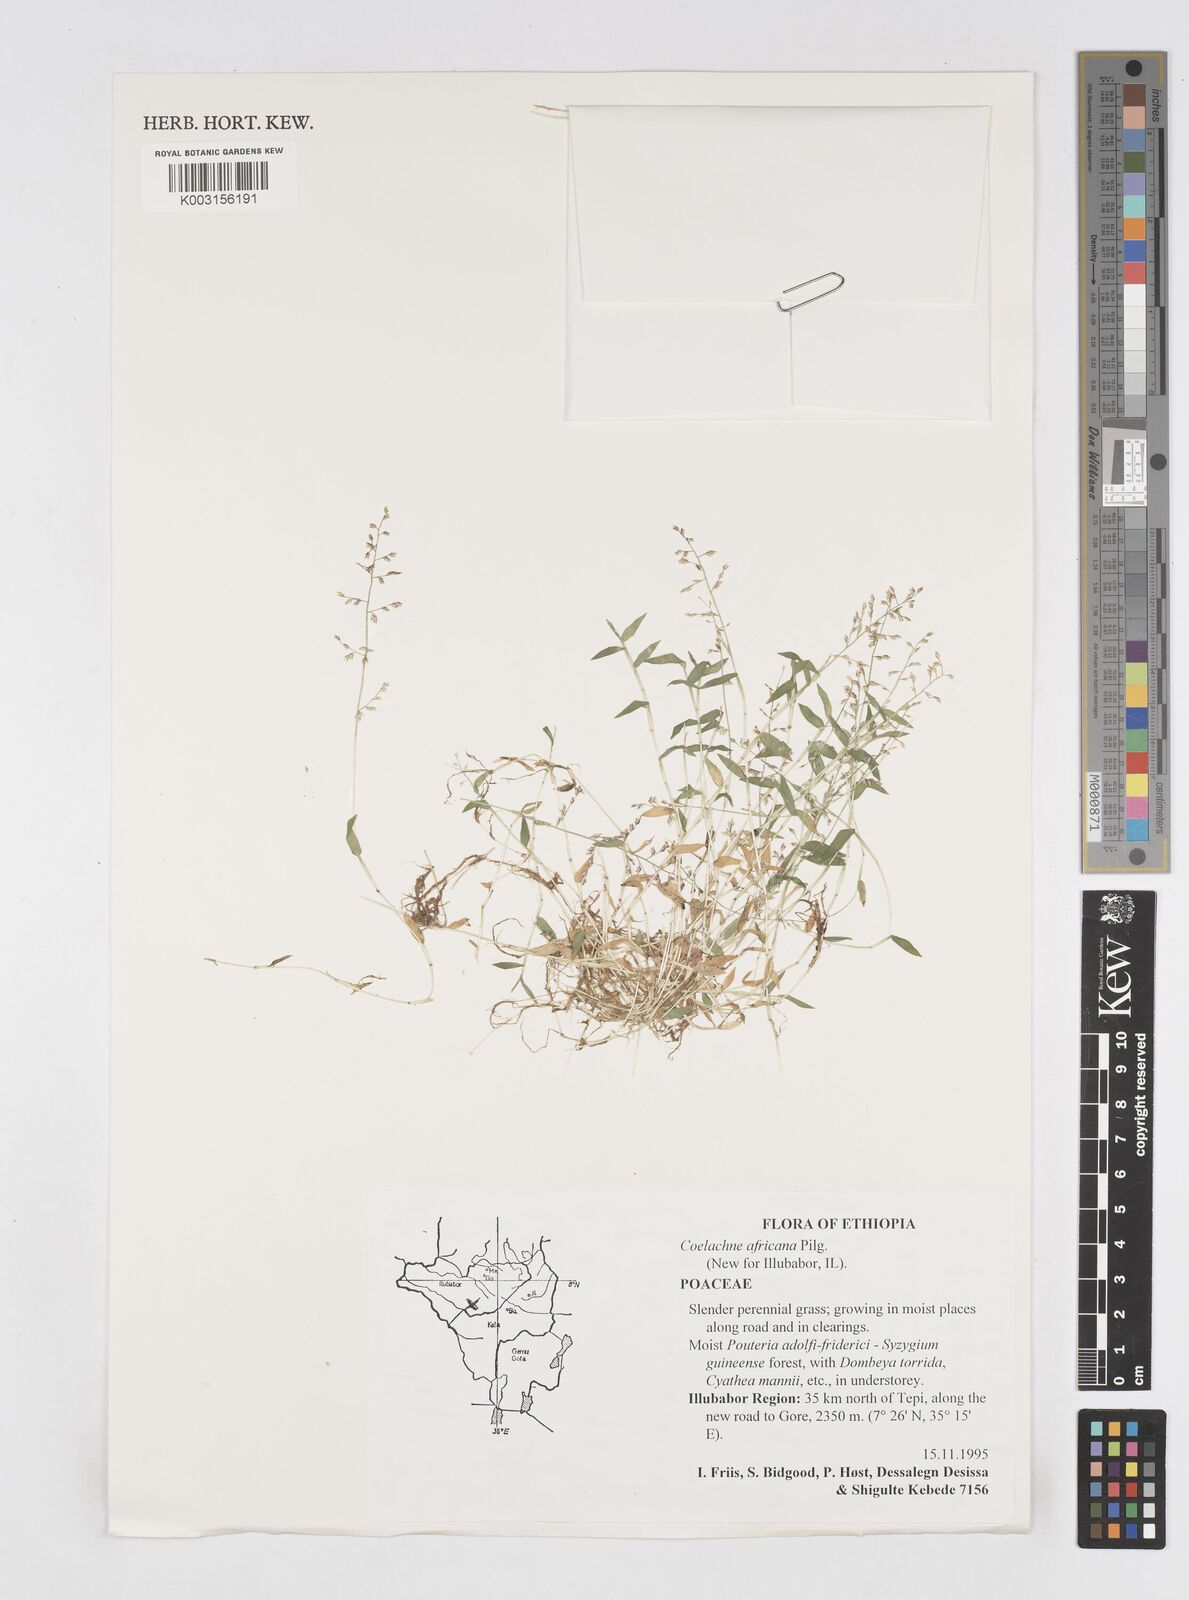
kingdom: Plantae
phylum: Tracheophyta
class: Liliopsida
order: Poales
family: Poaceae
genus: Coelachne
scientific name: Coelachne africana
